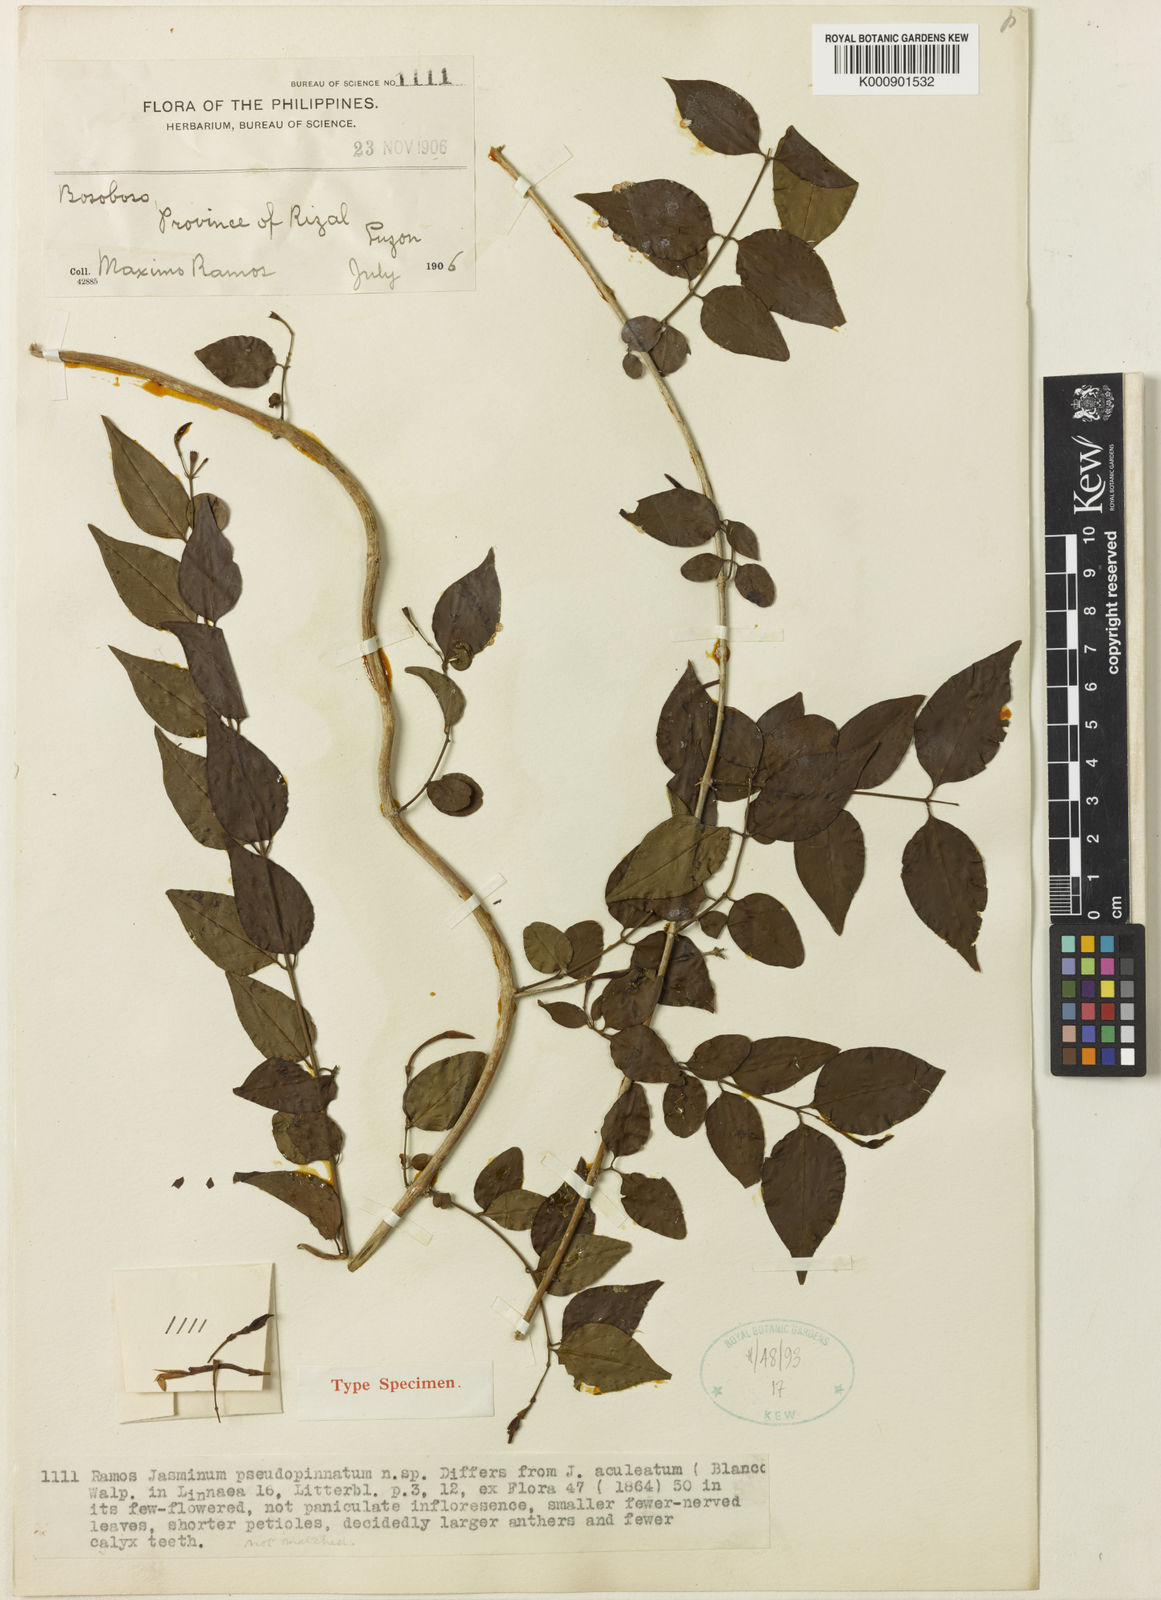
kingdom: Plantae
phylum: Tracheophyta
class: Magnoliopsida
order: Lamiales
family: Oleaceae
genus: Jasminum
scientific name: Jasminum pseudopinnatum
